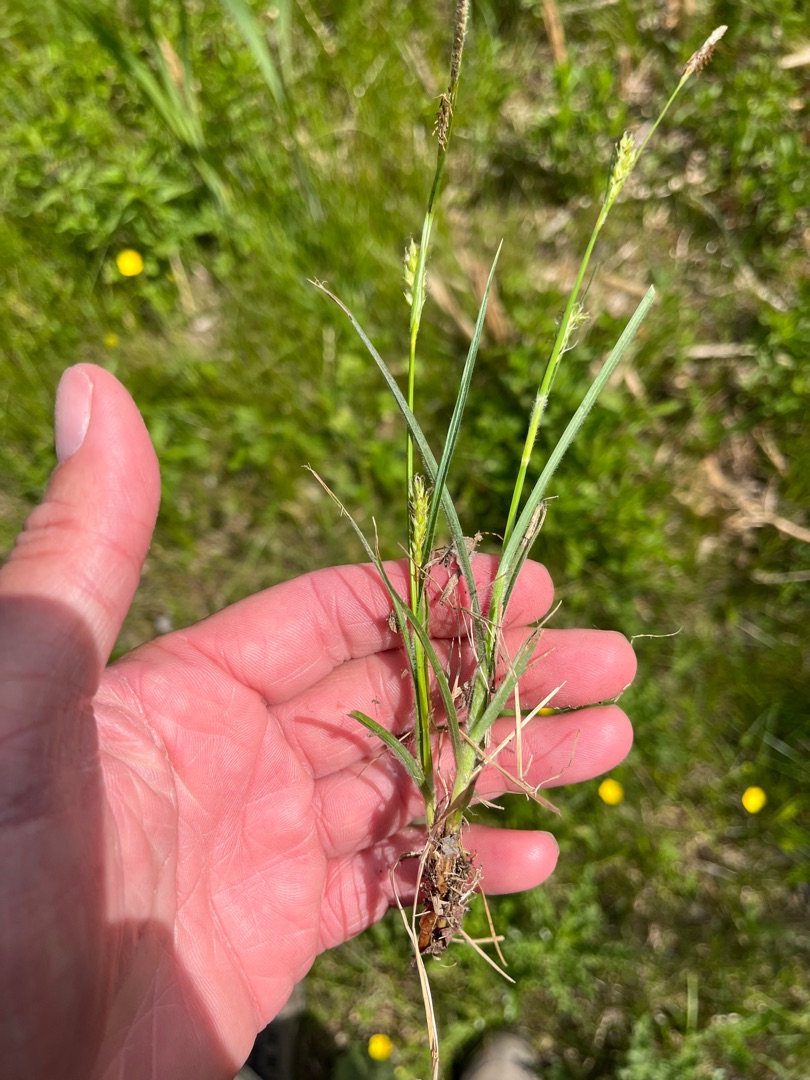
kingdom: Plantae
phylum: Tracheophyta
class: Liliopsida
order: Poales
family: Cyperaceae
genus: Carex
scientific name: Carex hirta
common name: Håret star
